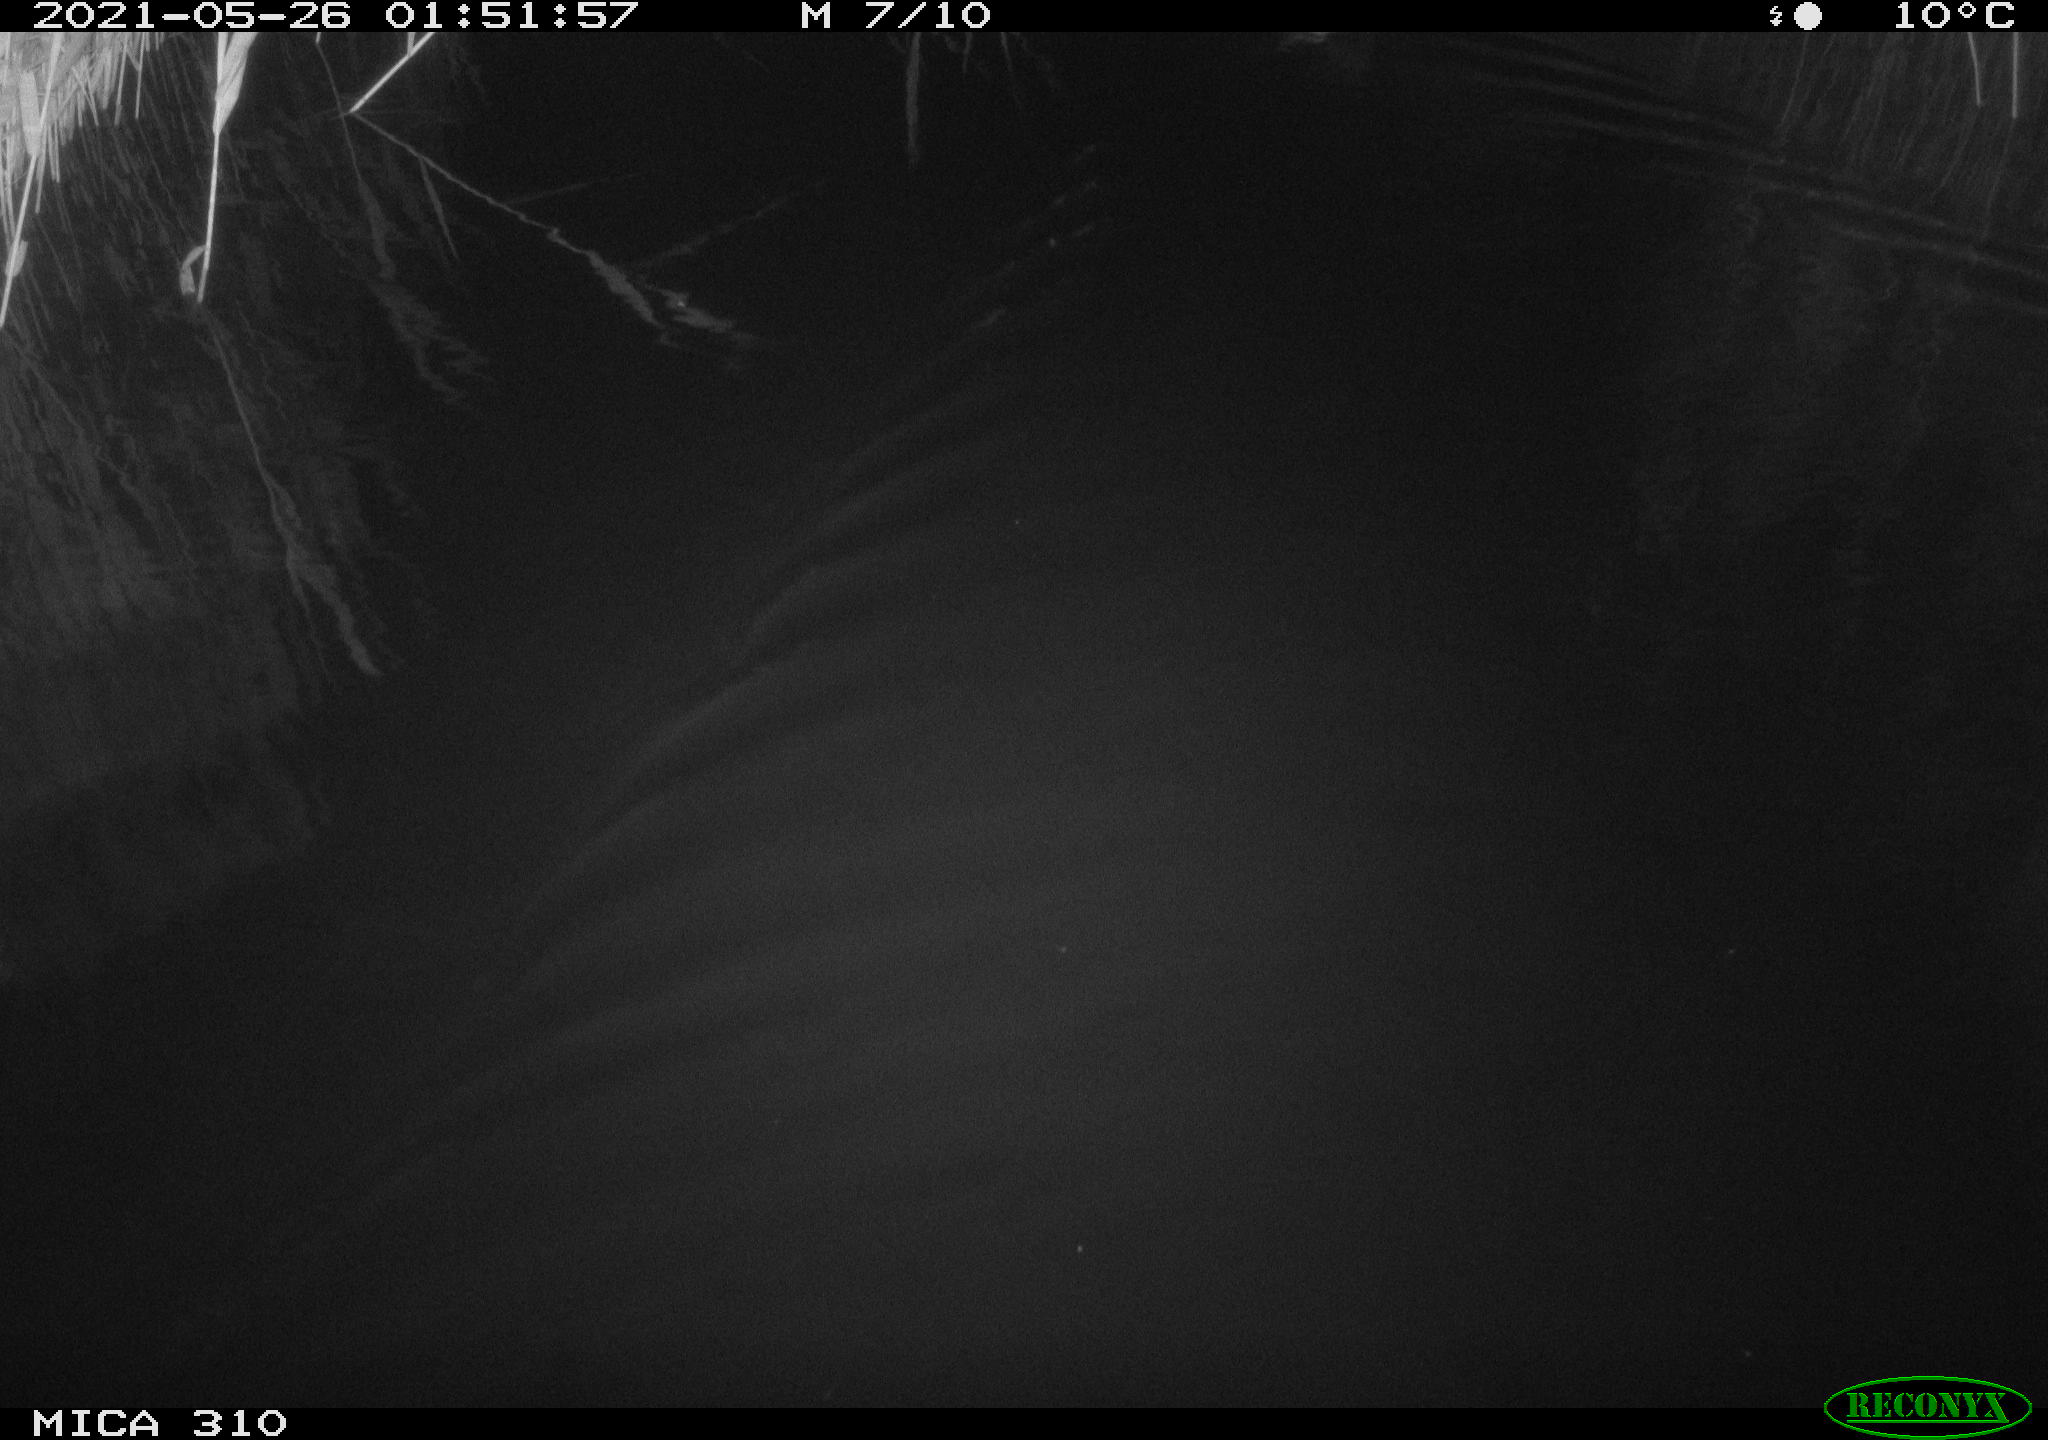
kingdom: Animalia
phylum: Chordata
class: Aves
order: Anseriformes
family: Anatidae
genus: Anas
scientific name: Anas platyrhynchos
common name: Mallard
